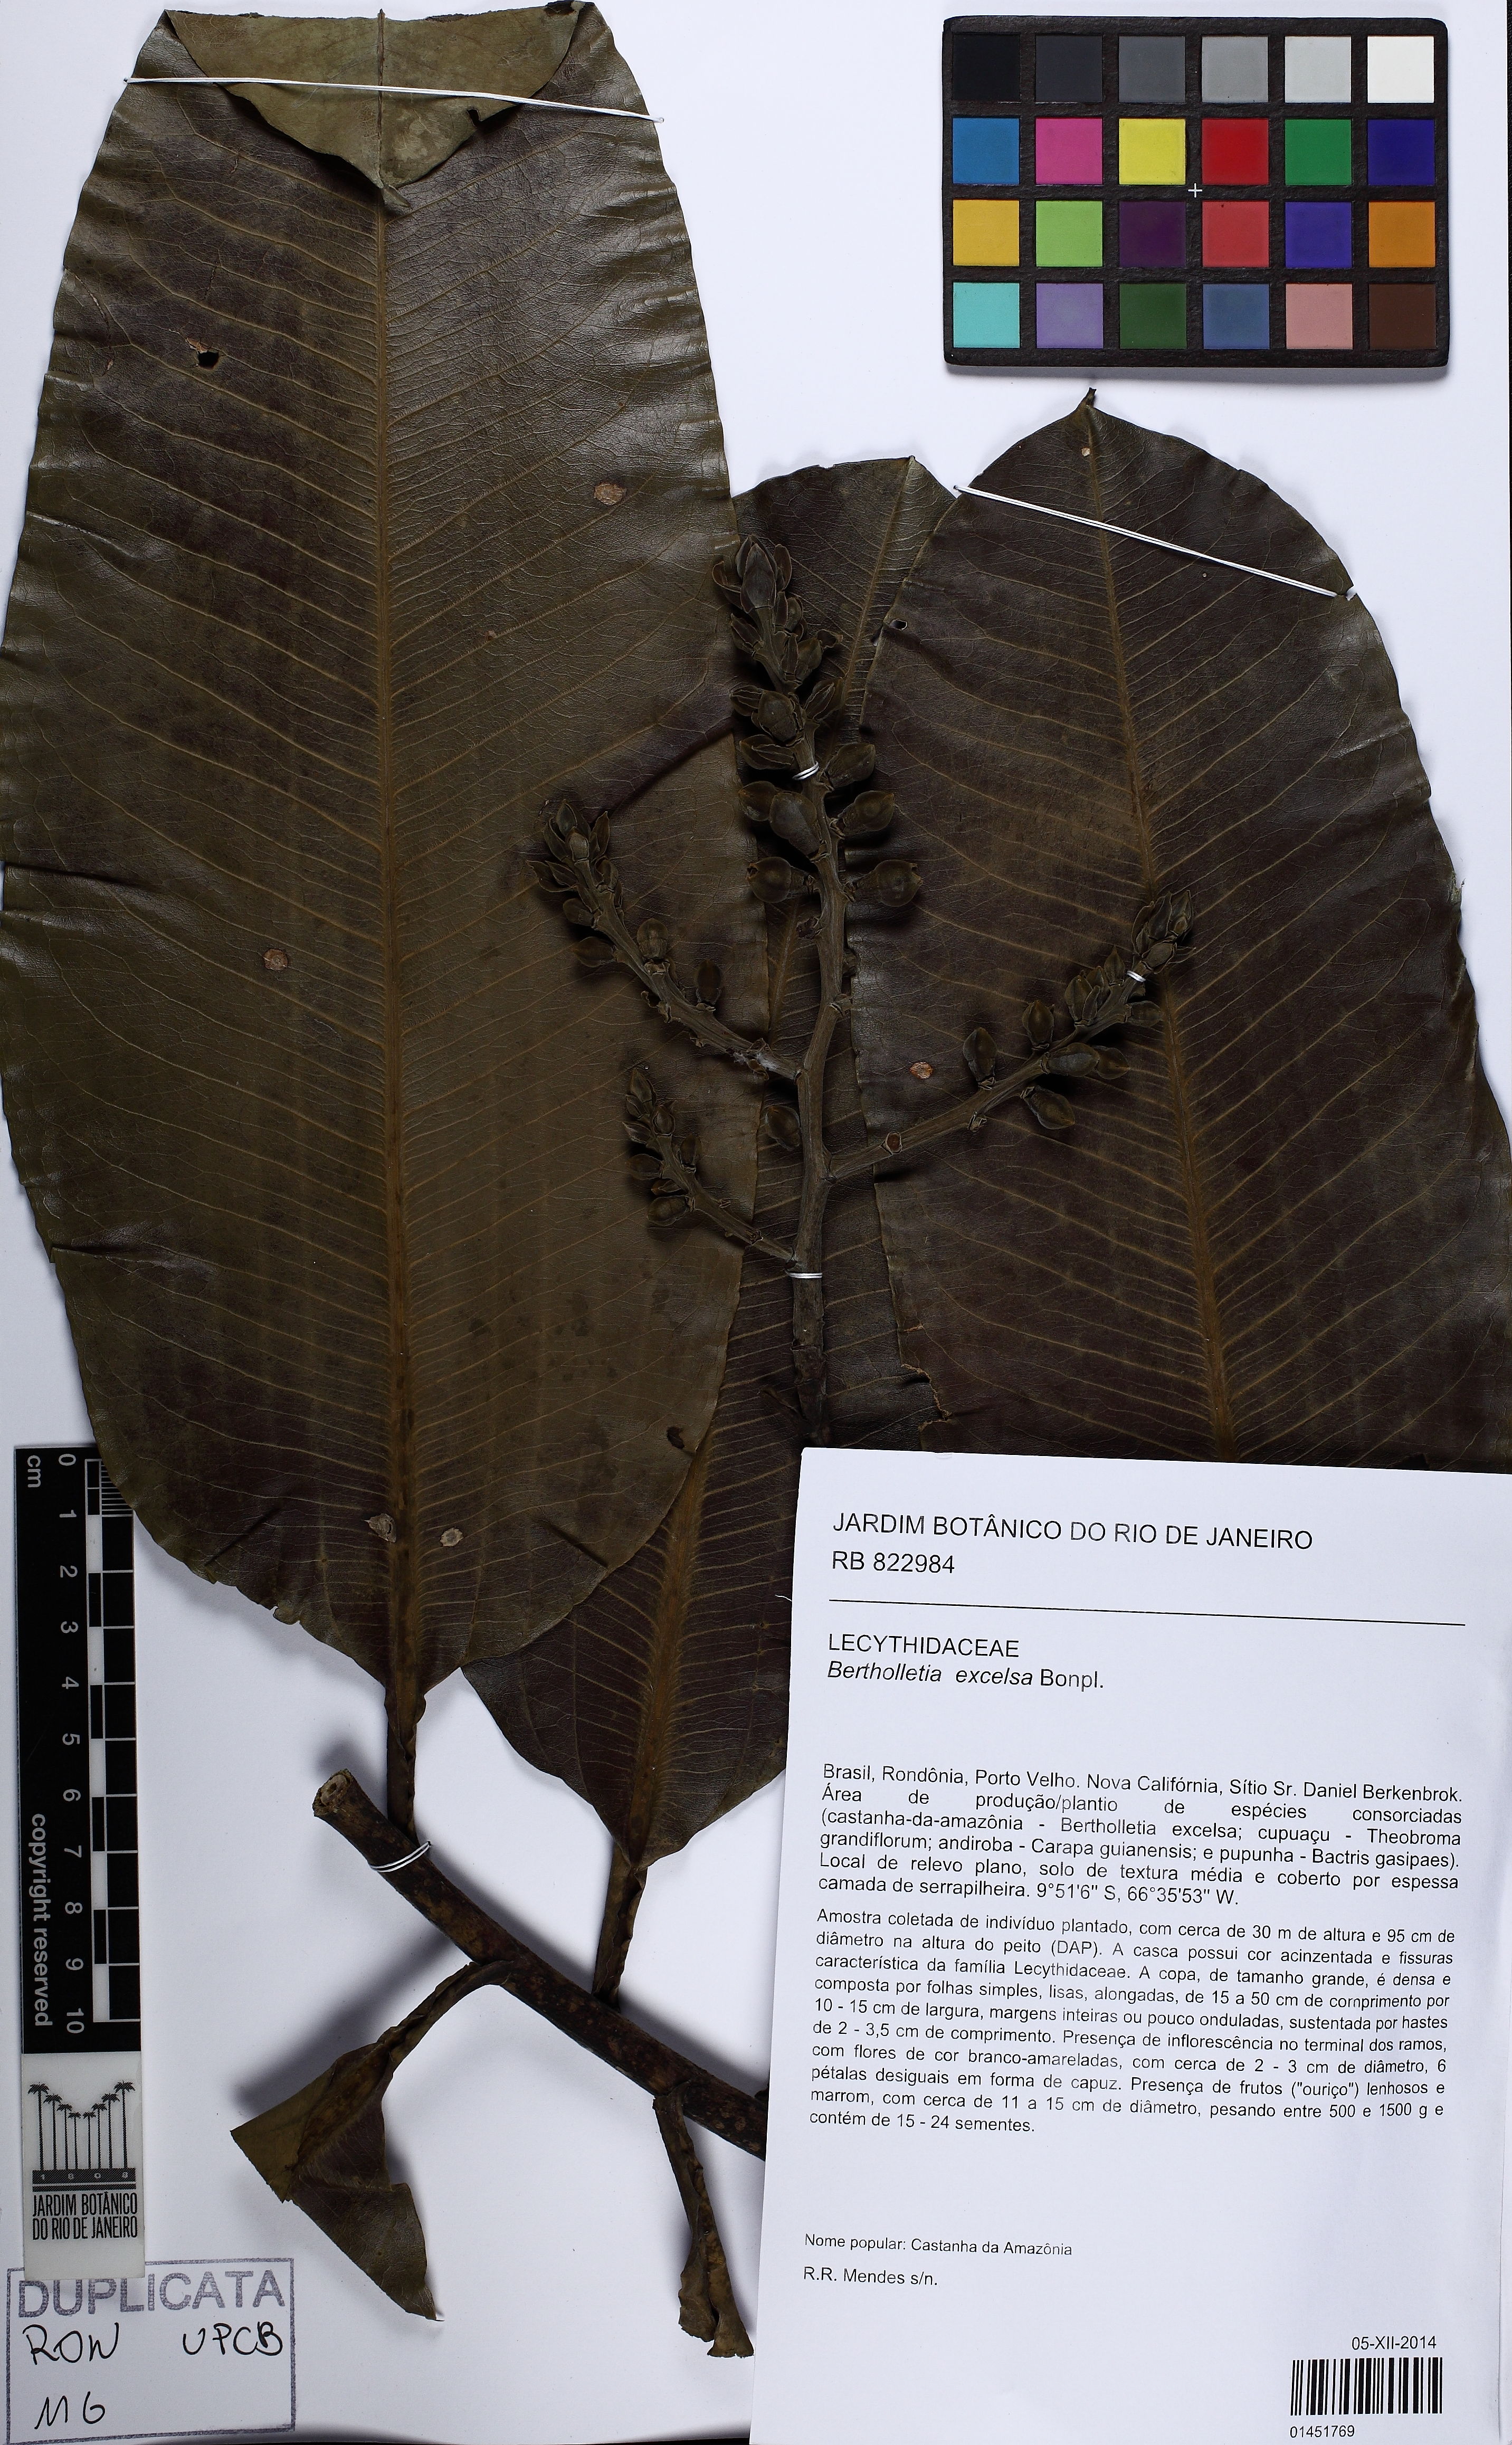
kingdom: Plantae
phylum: Tracheophyta
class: Magnoliopsida
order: Ericales
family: Lecythidaceae
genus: Bertholletia
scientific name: Bertholletia excelsa
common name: Brazil-nut tree
